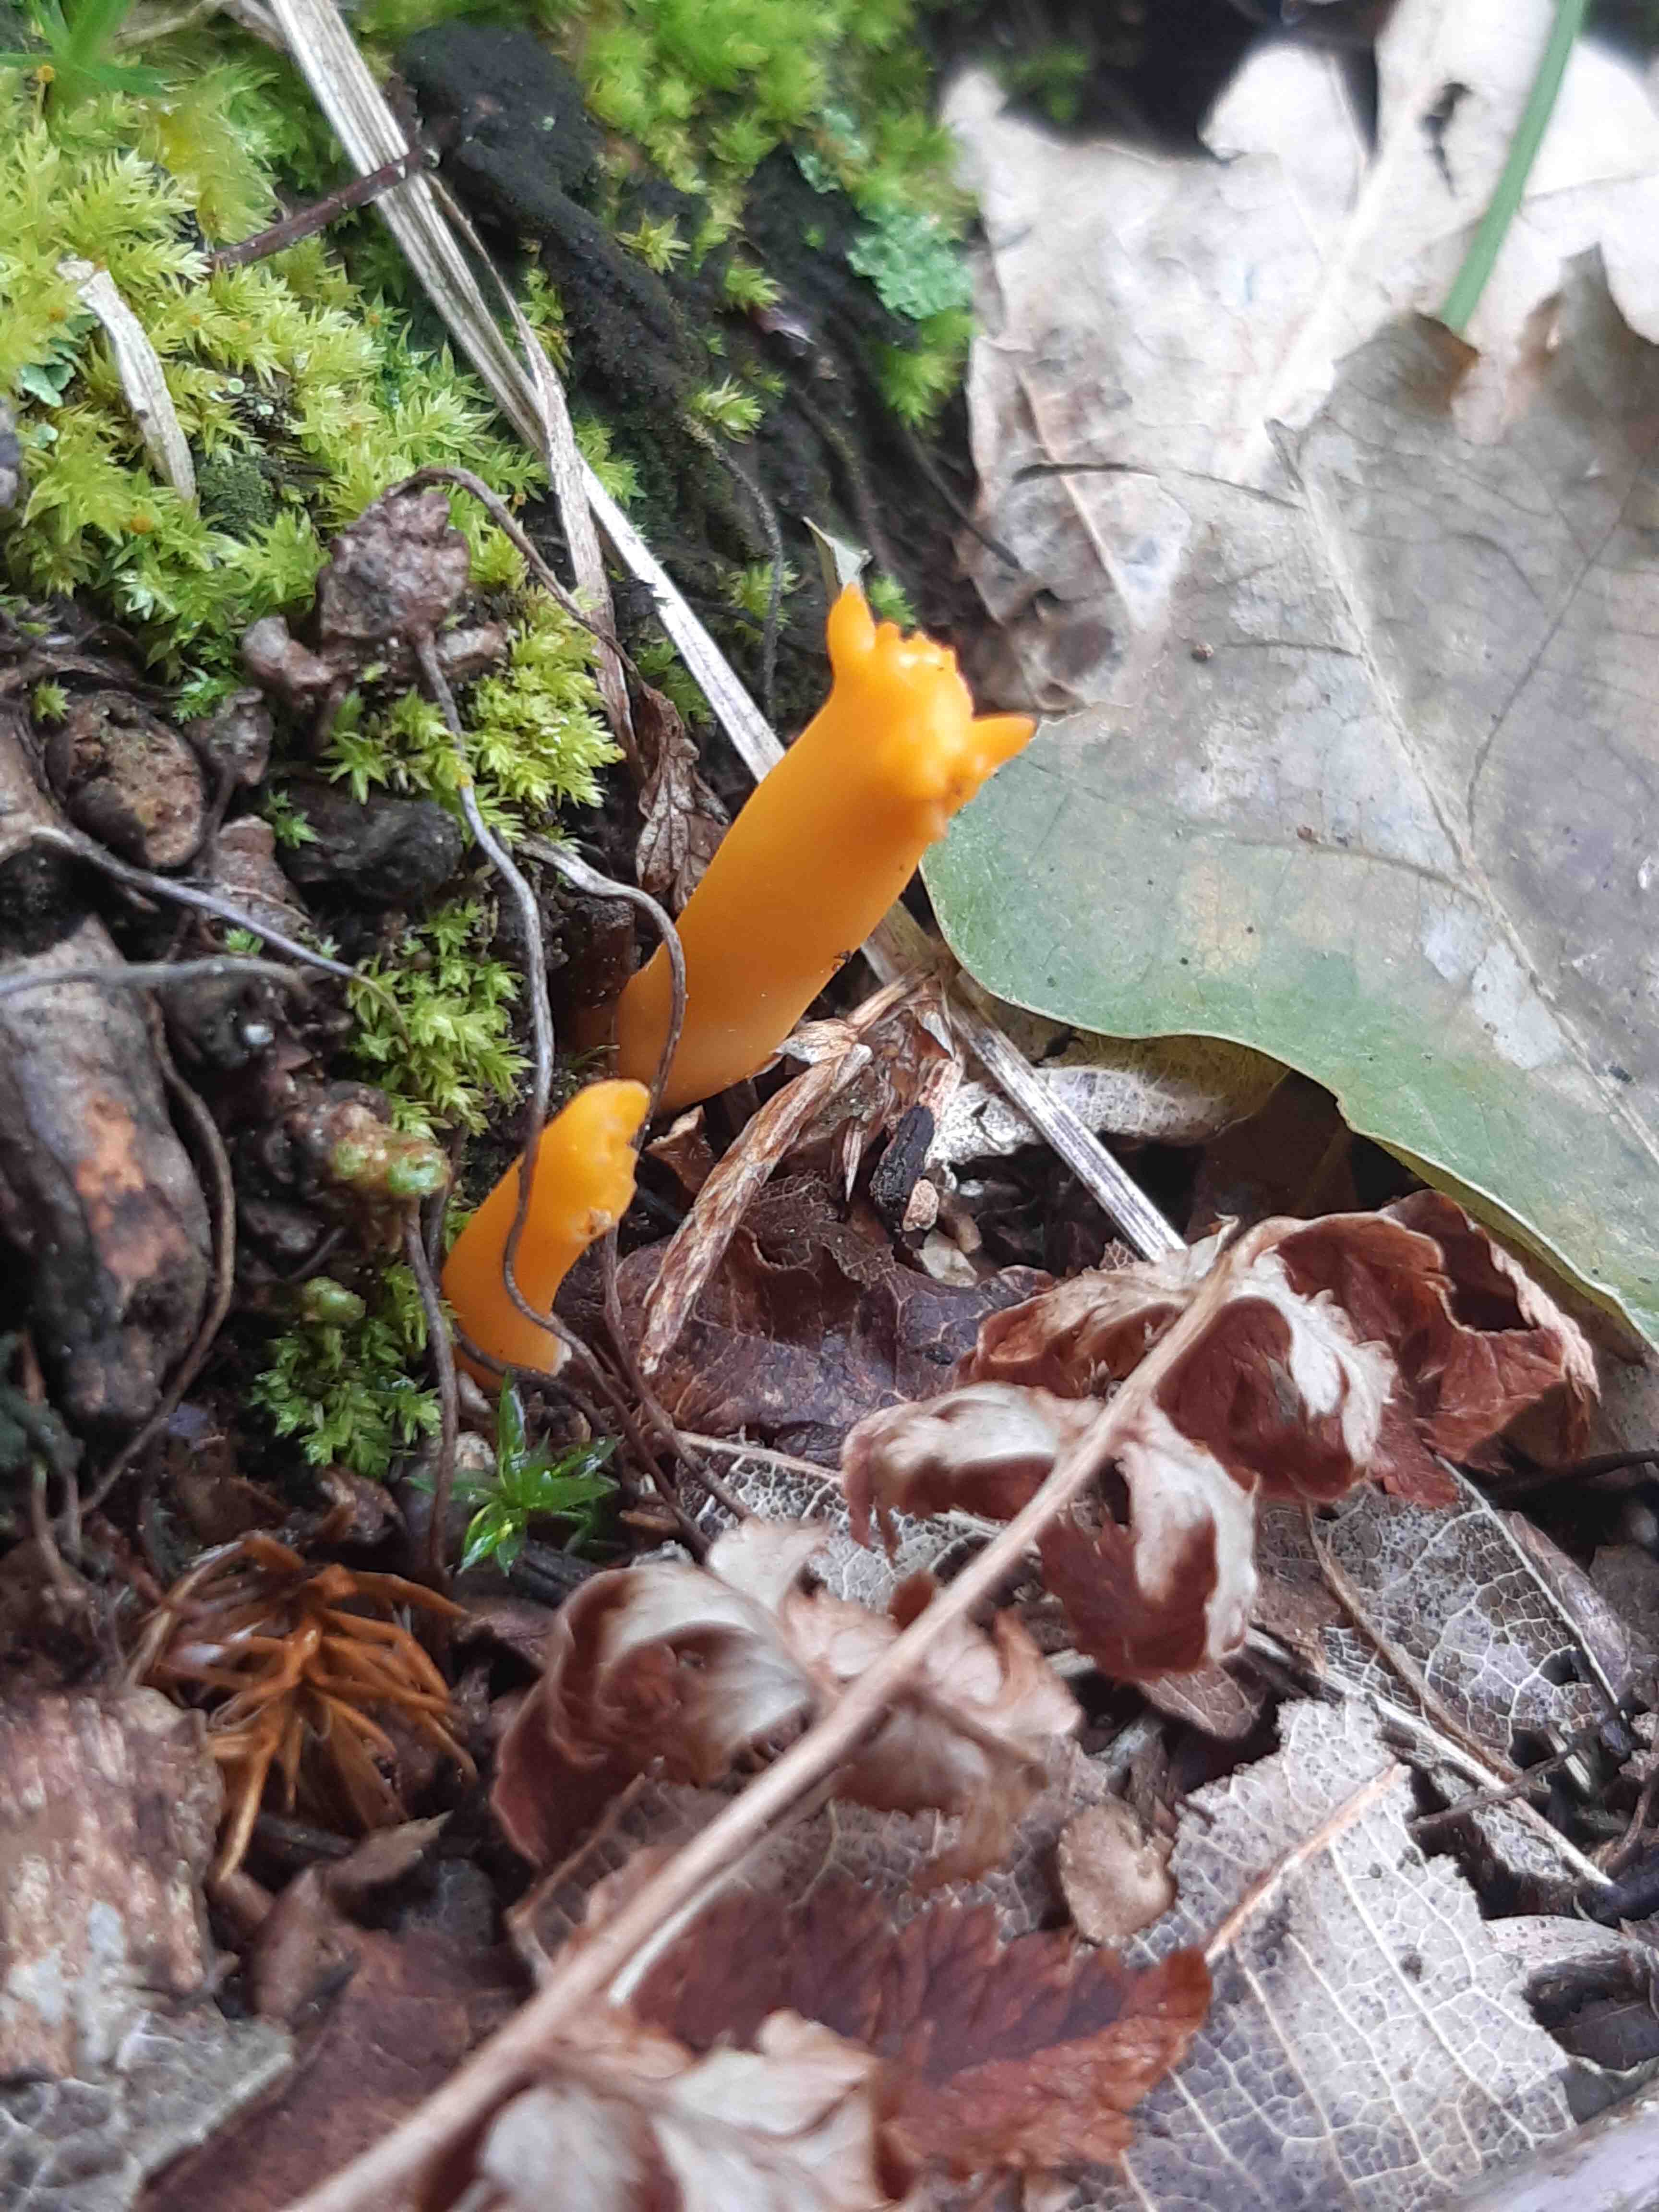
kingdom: Fungi
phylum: Basidiomycota
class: Dacrymycetes
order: Dacrymycetales
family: Dacrymycetaceae
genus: Calocera
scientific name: Calocera viscosa
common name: almindelig guldgaffel
